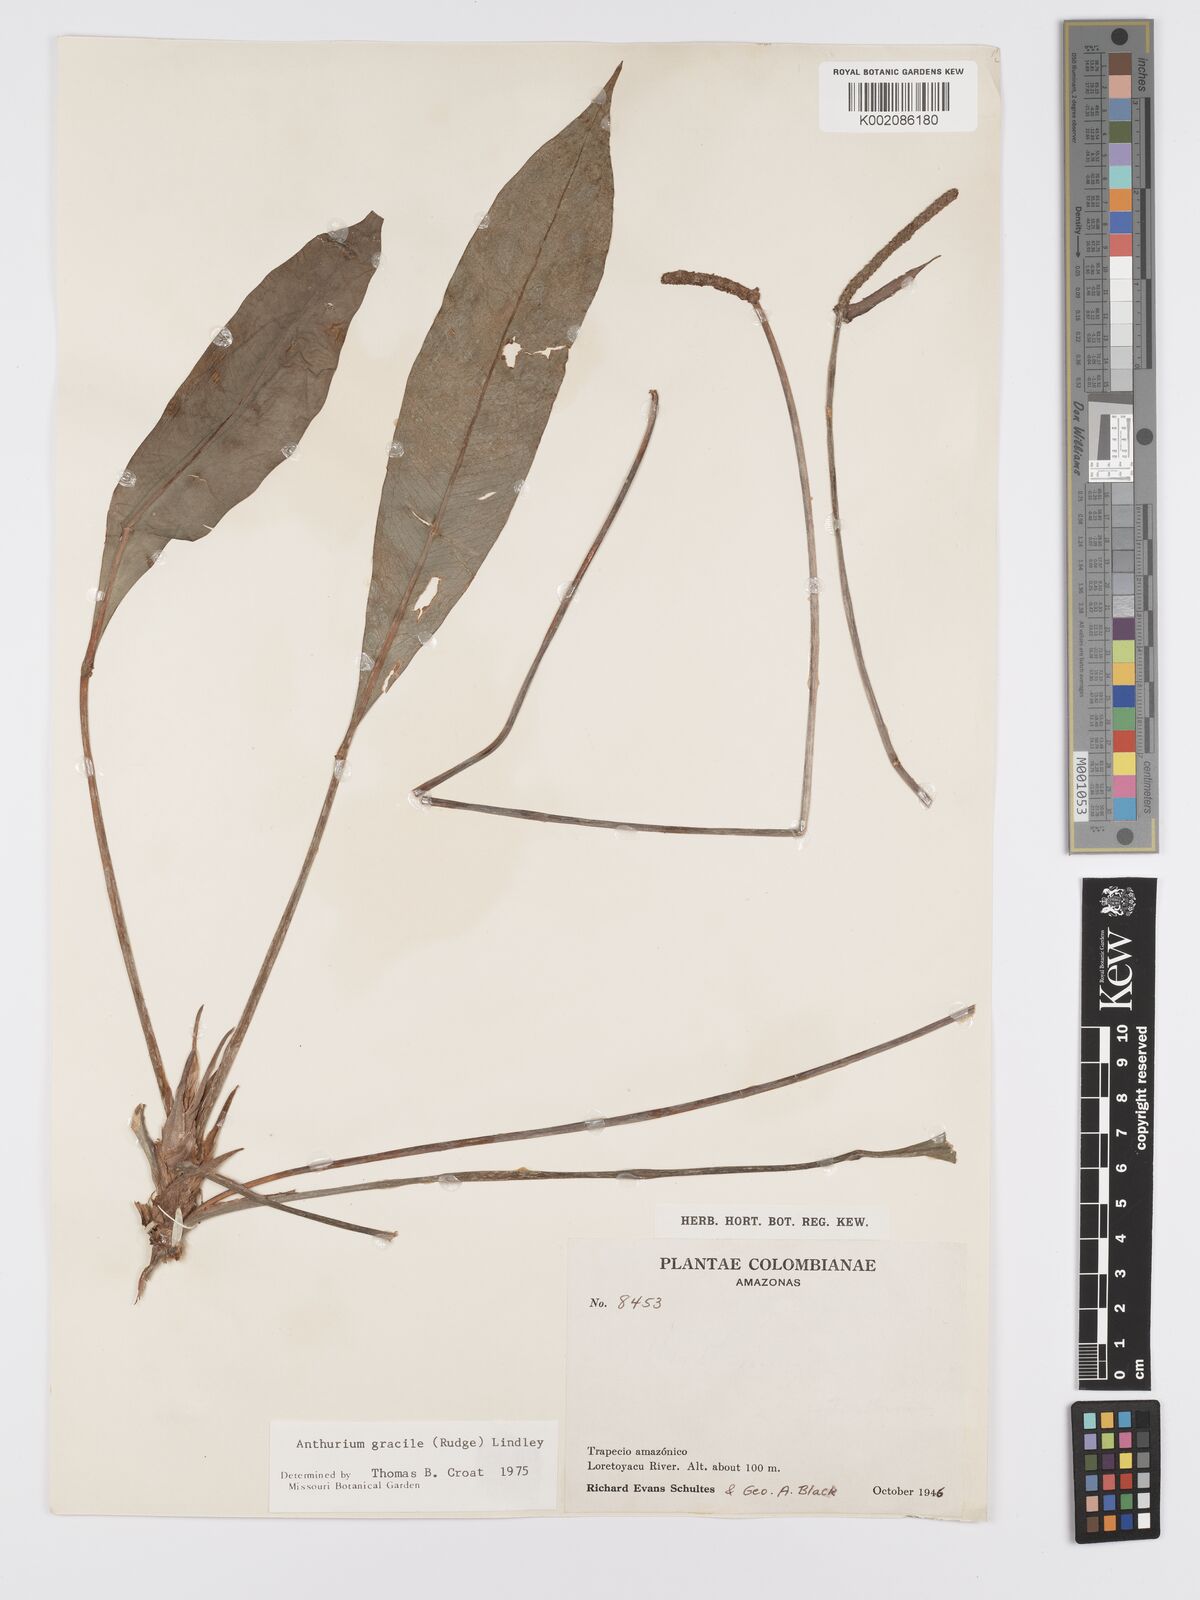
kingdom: Plantae
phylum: Tracheophyta
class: Liliopsida
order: Alismatales
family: Araceae
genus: Anthurium
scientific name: Anthurium gracile
